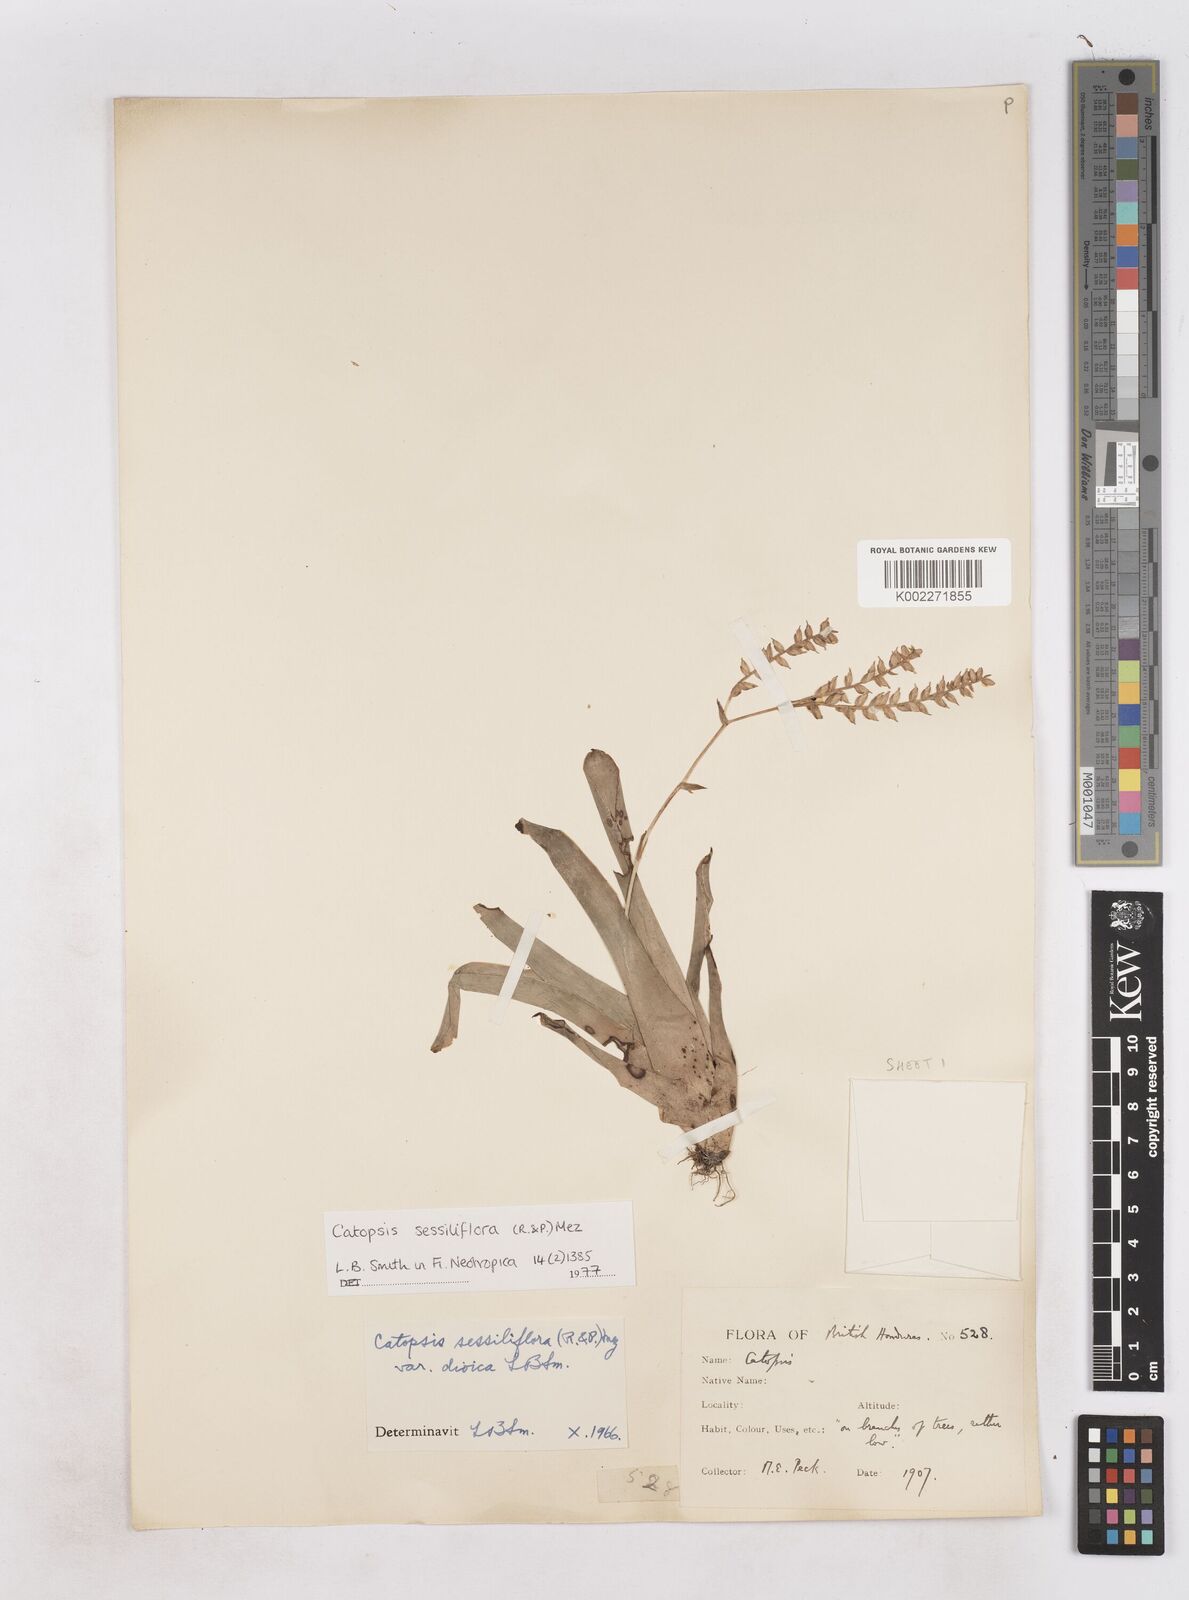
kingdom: Plantae
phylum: Tracheophyta
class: Liliopsida
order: Poales
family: Bromeliaceae
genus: Catopsis
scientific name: Catopsis sessiliflora
